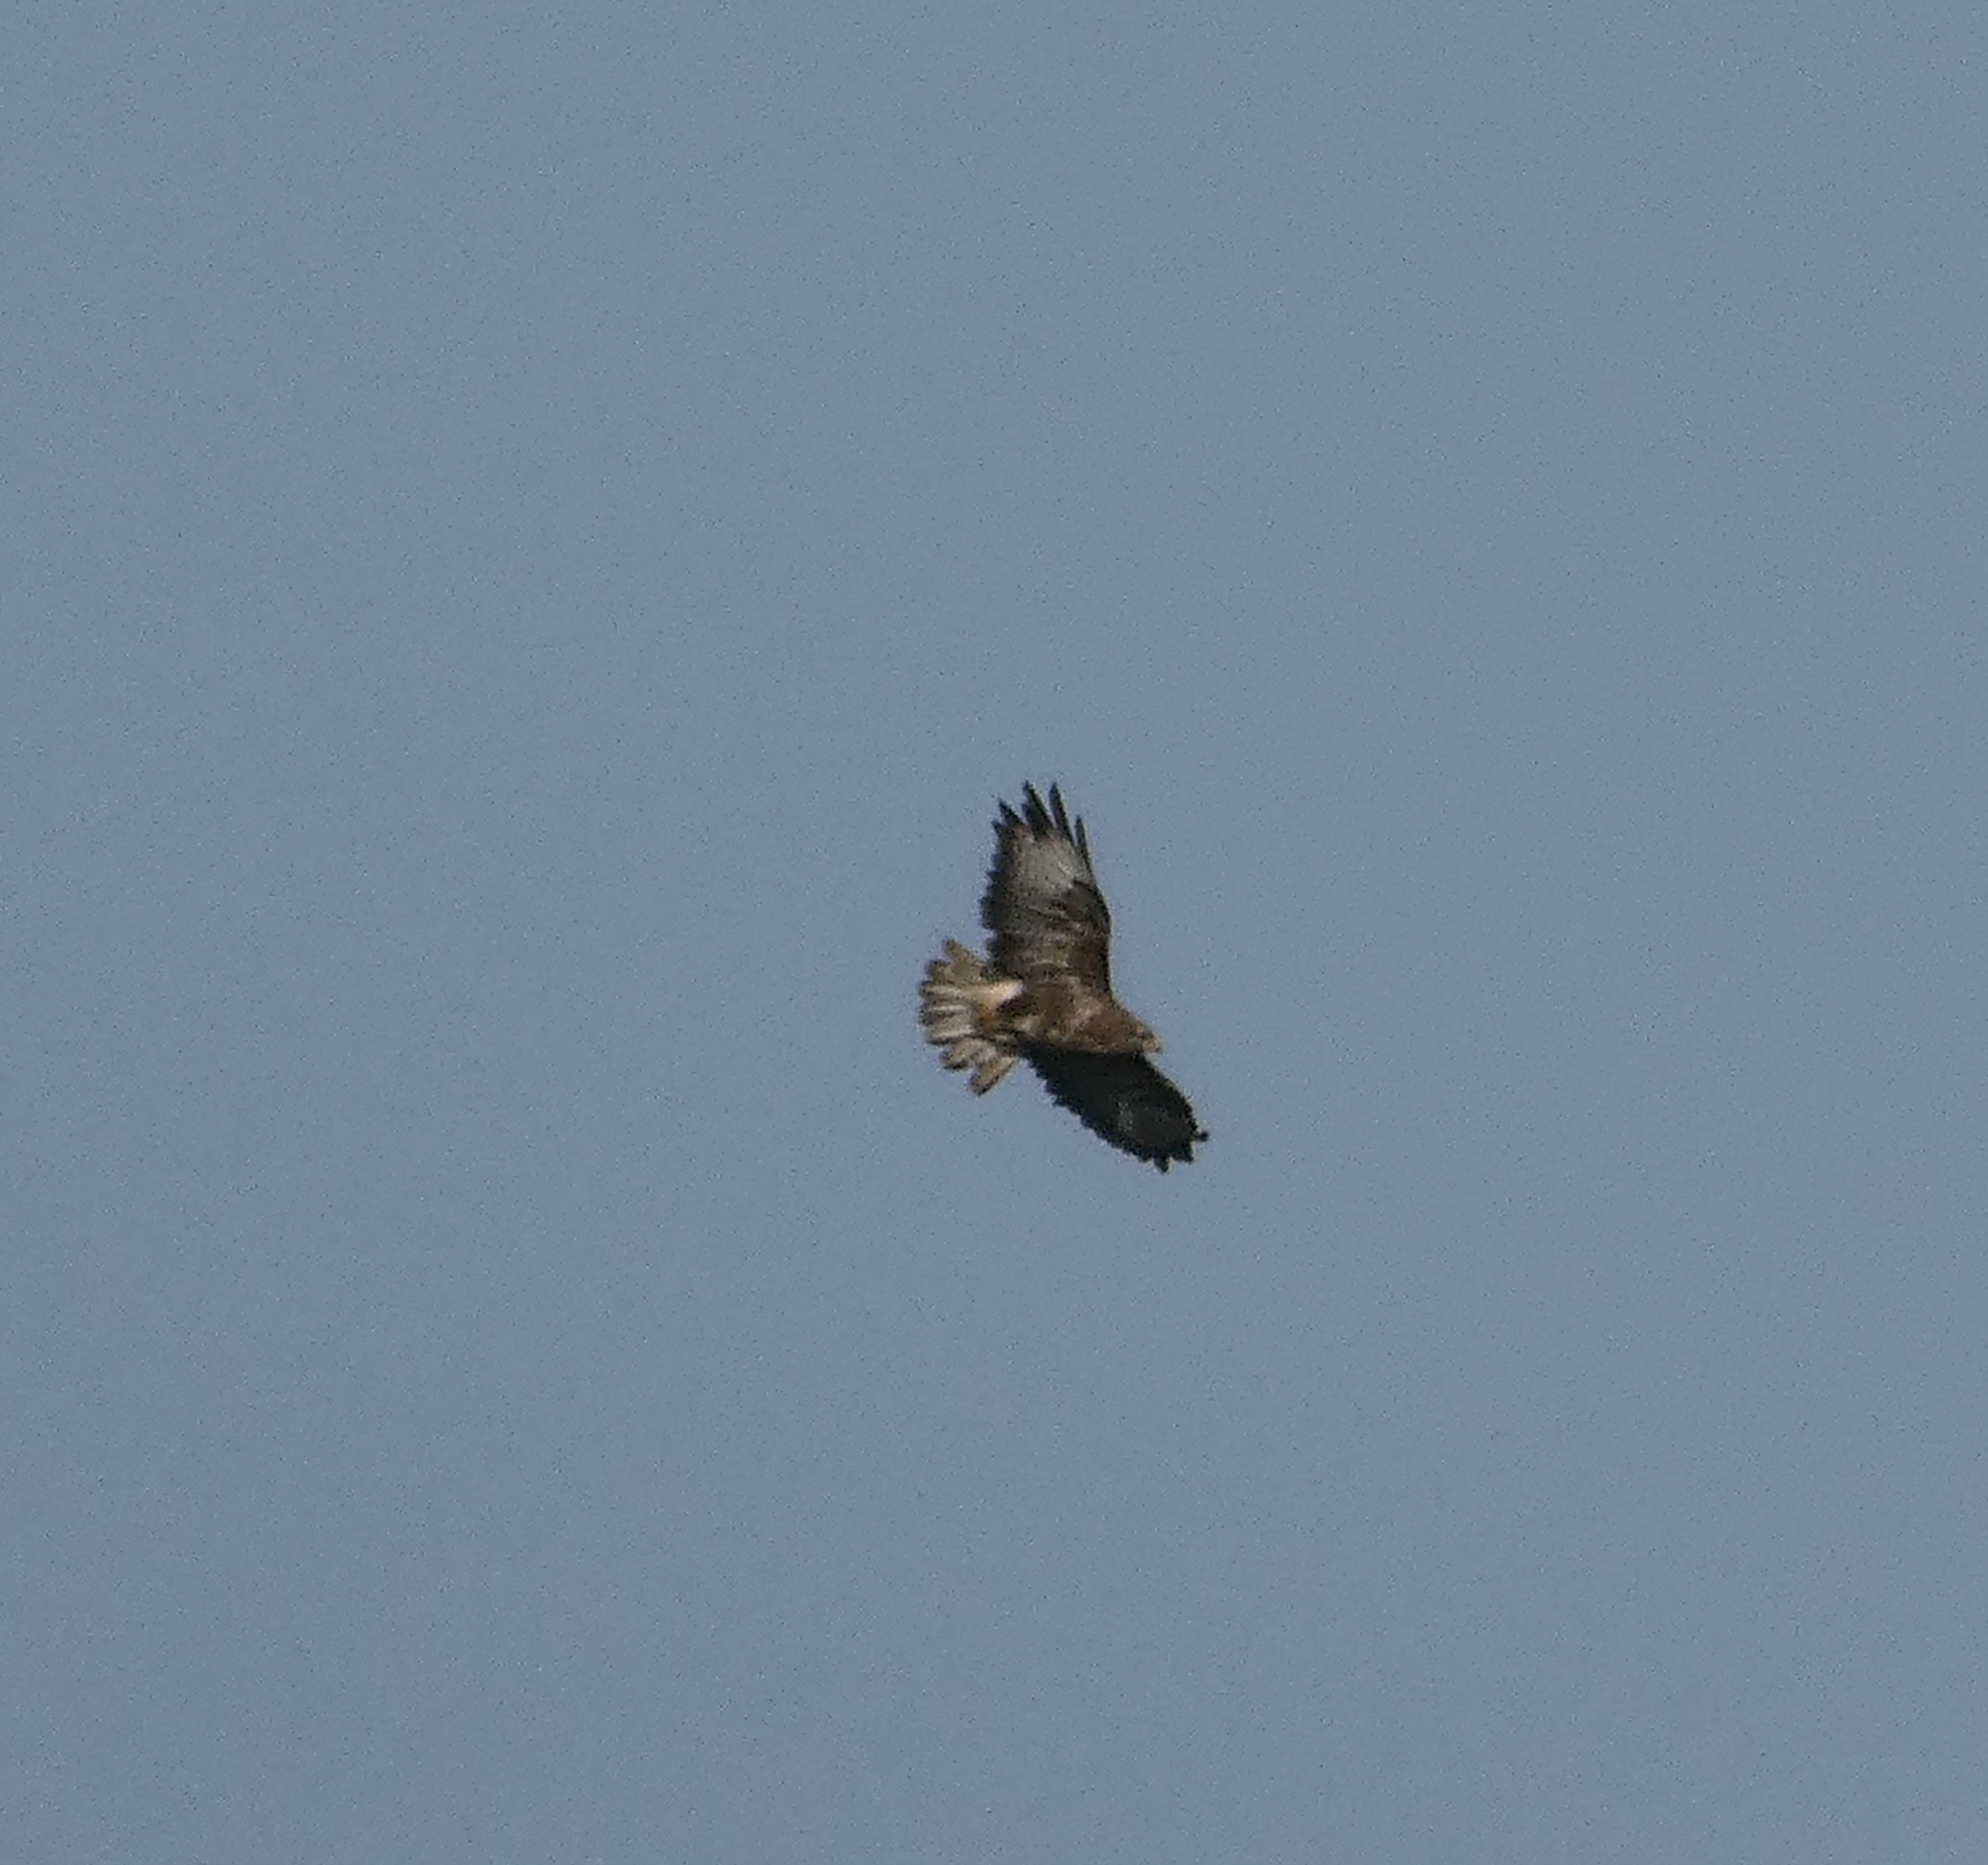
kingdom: Animalia
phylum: Chordata
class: Aves
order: Accipitriformes
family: Accipitridae
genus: Buteo
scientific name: Buteo buteo
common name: Musvåge
